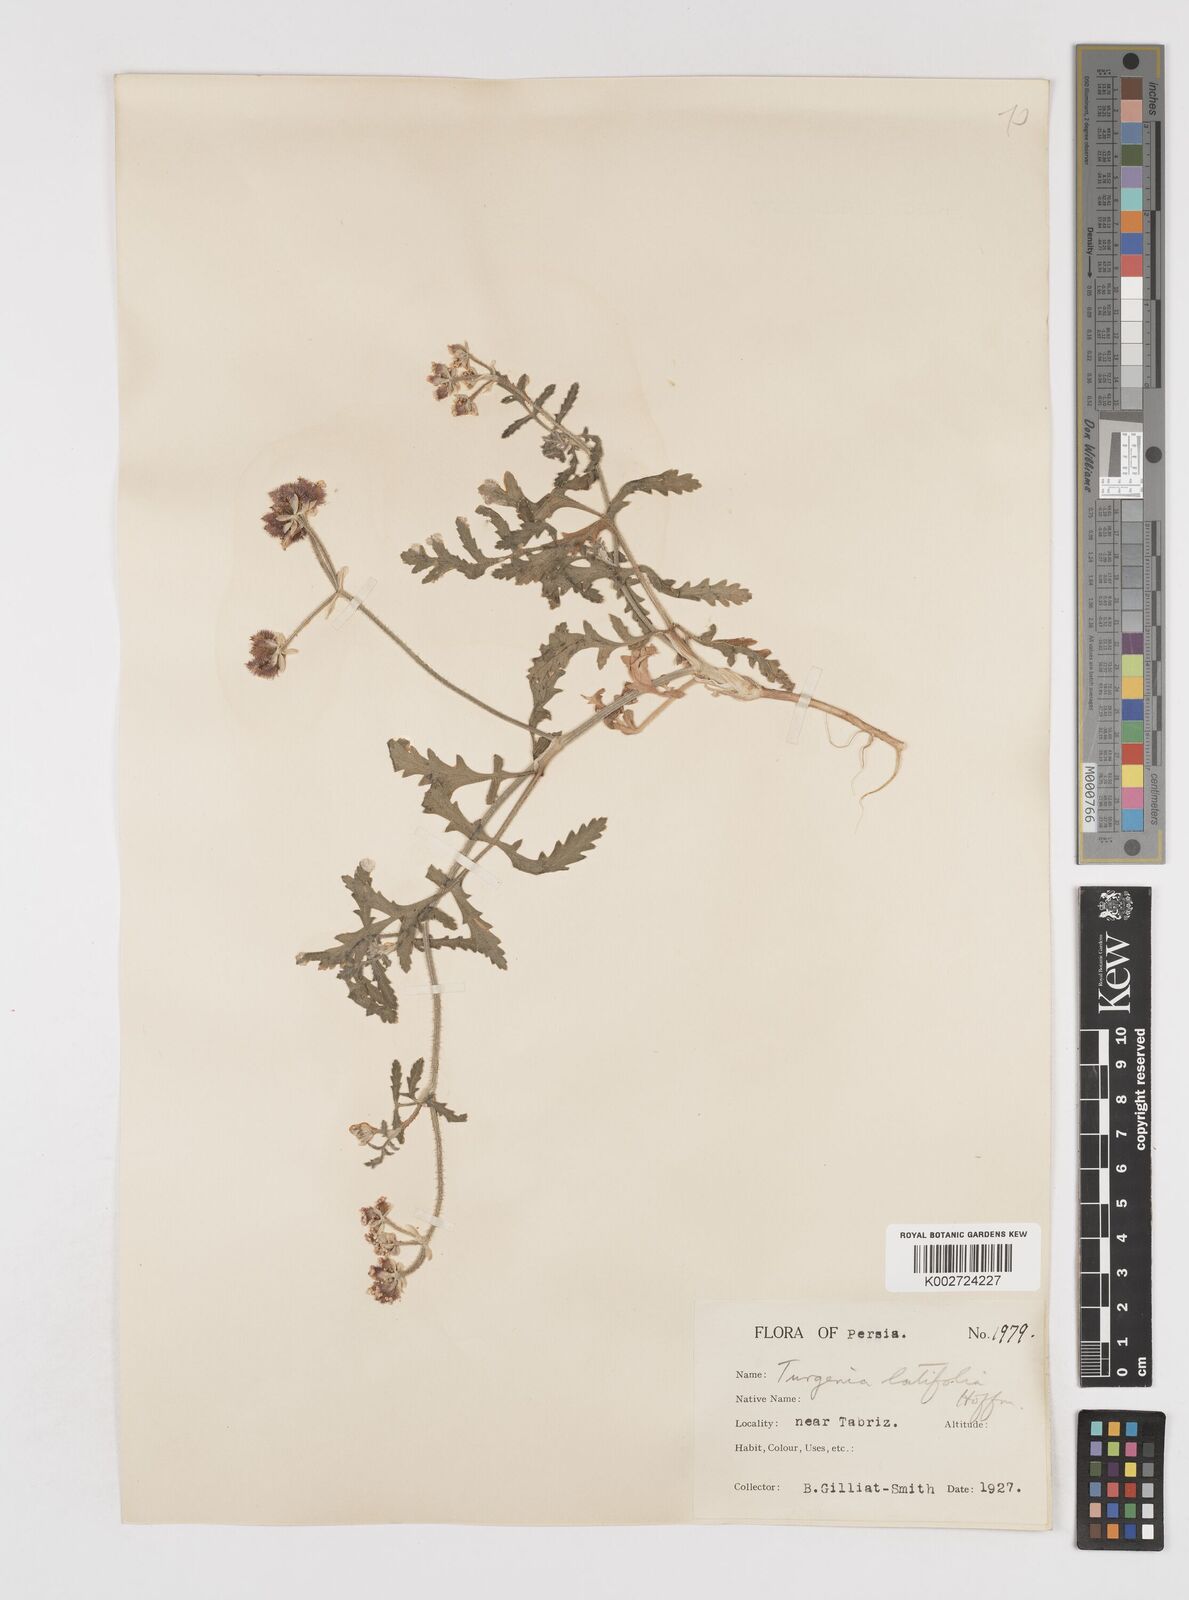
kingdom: Plantae
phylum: Tracheophyta
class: Magnoliopsida
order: Apiales
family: Apiaceae
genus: Turgenia
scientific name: Turgenia latifolia
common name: Greater bur-parsley
